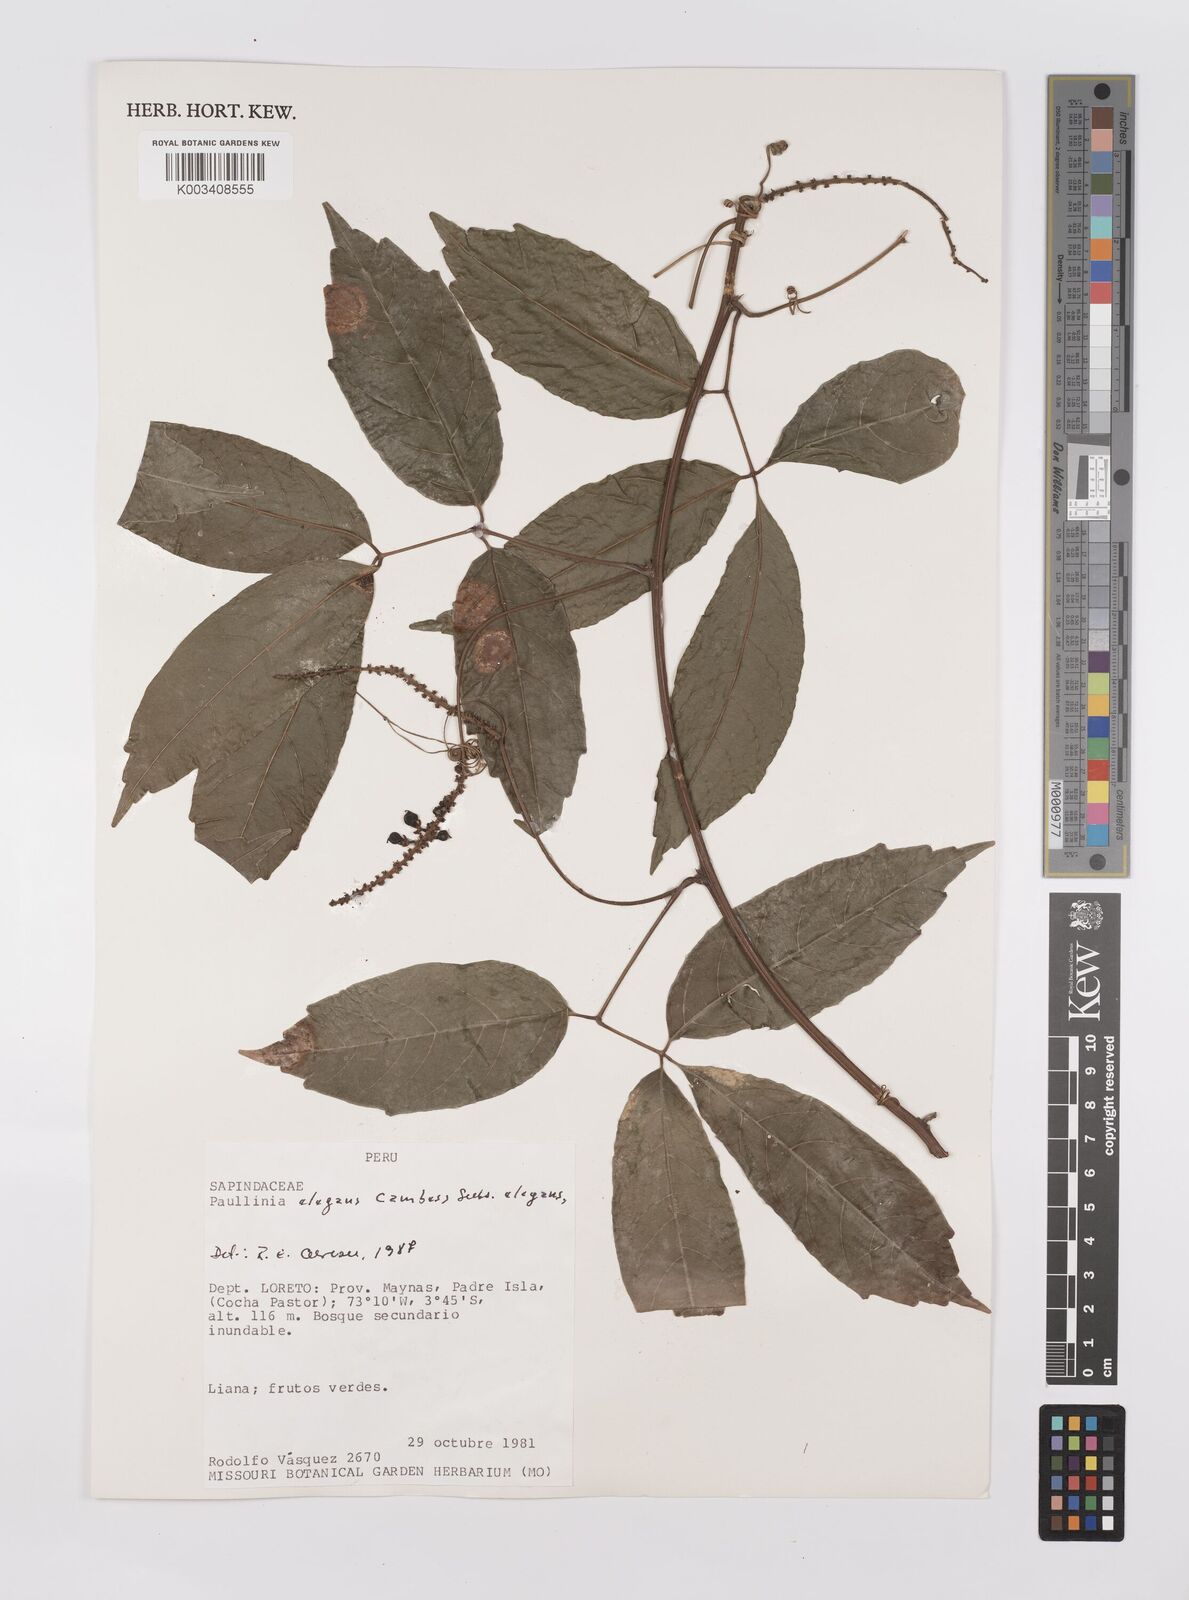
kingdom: Plantae
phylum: Tracheophyta
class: Magnoliopsida
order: Sapindales
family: Sapindaceae
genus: Paullinia
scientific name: Paullinia elegans
